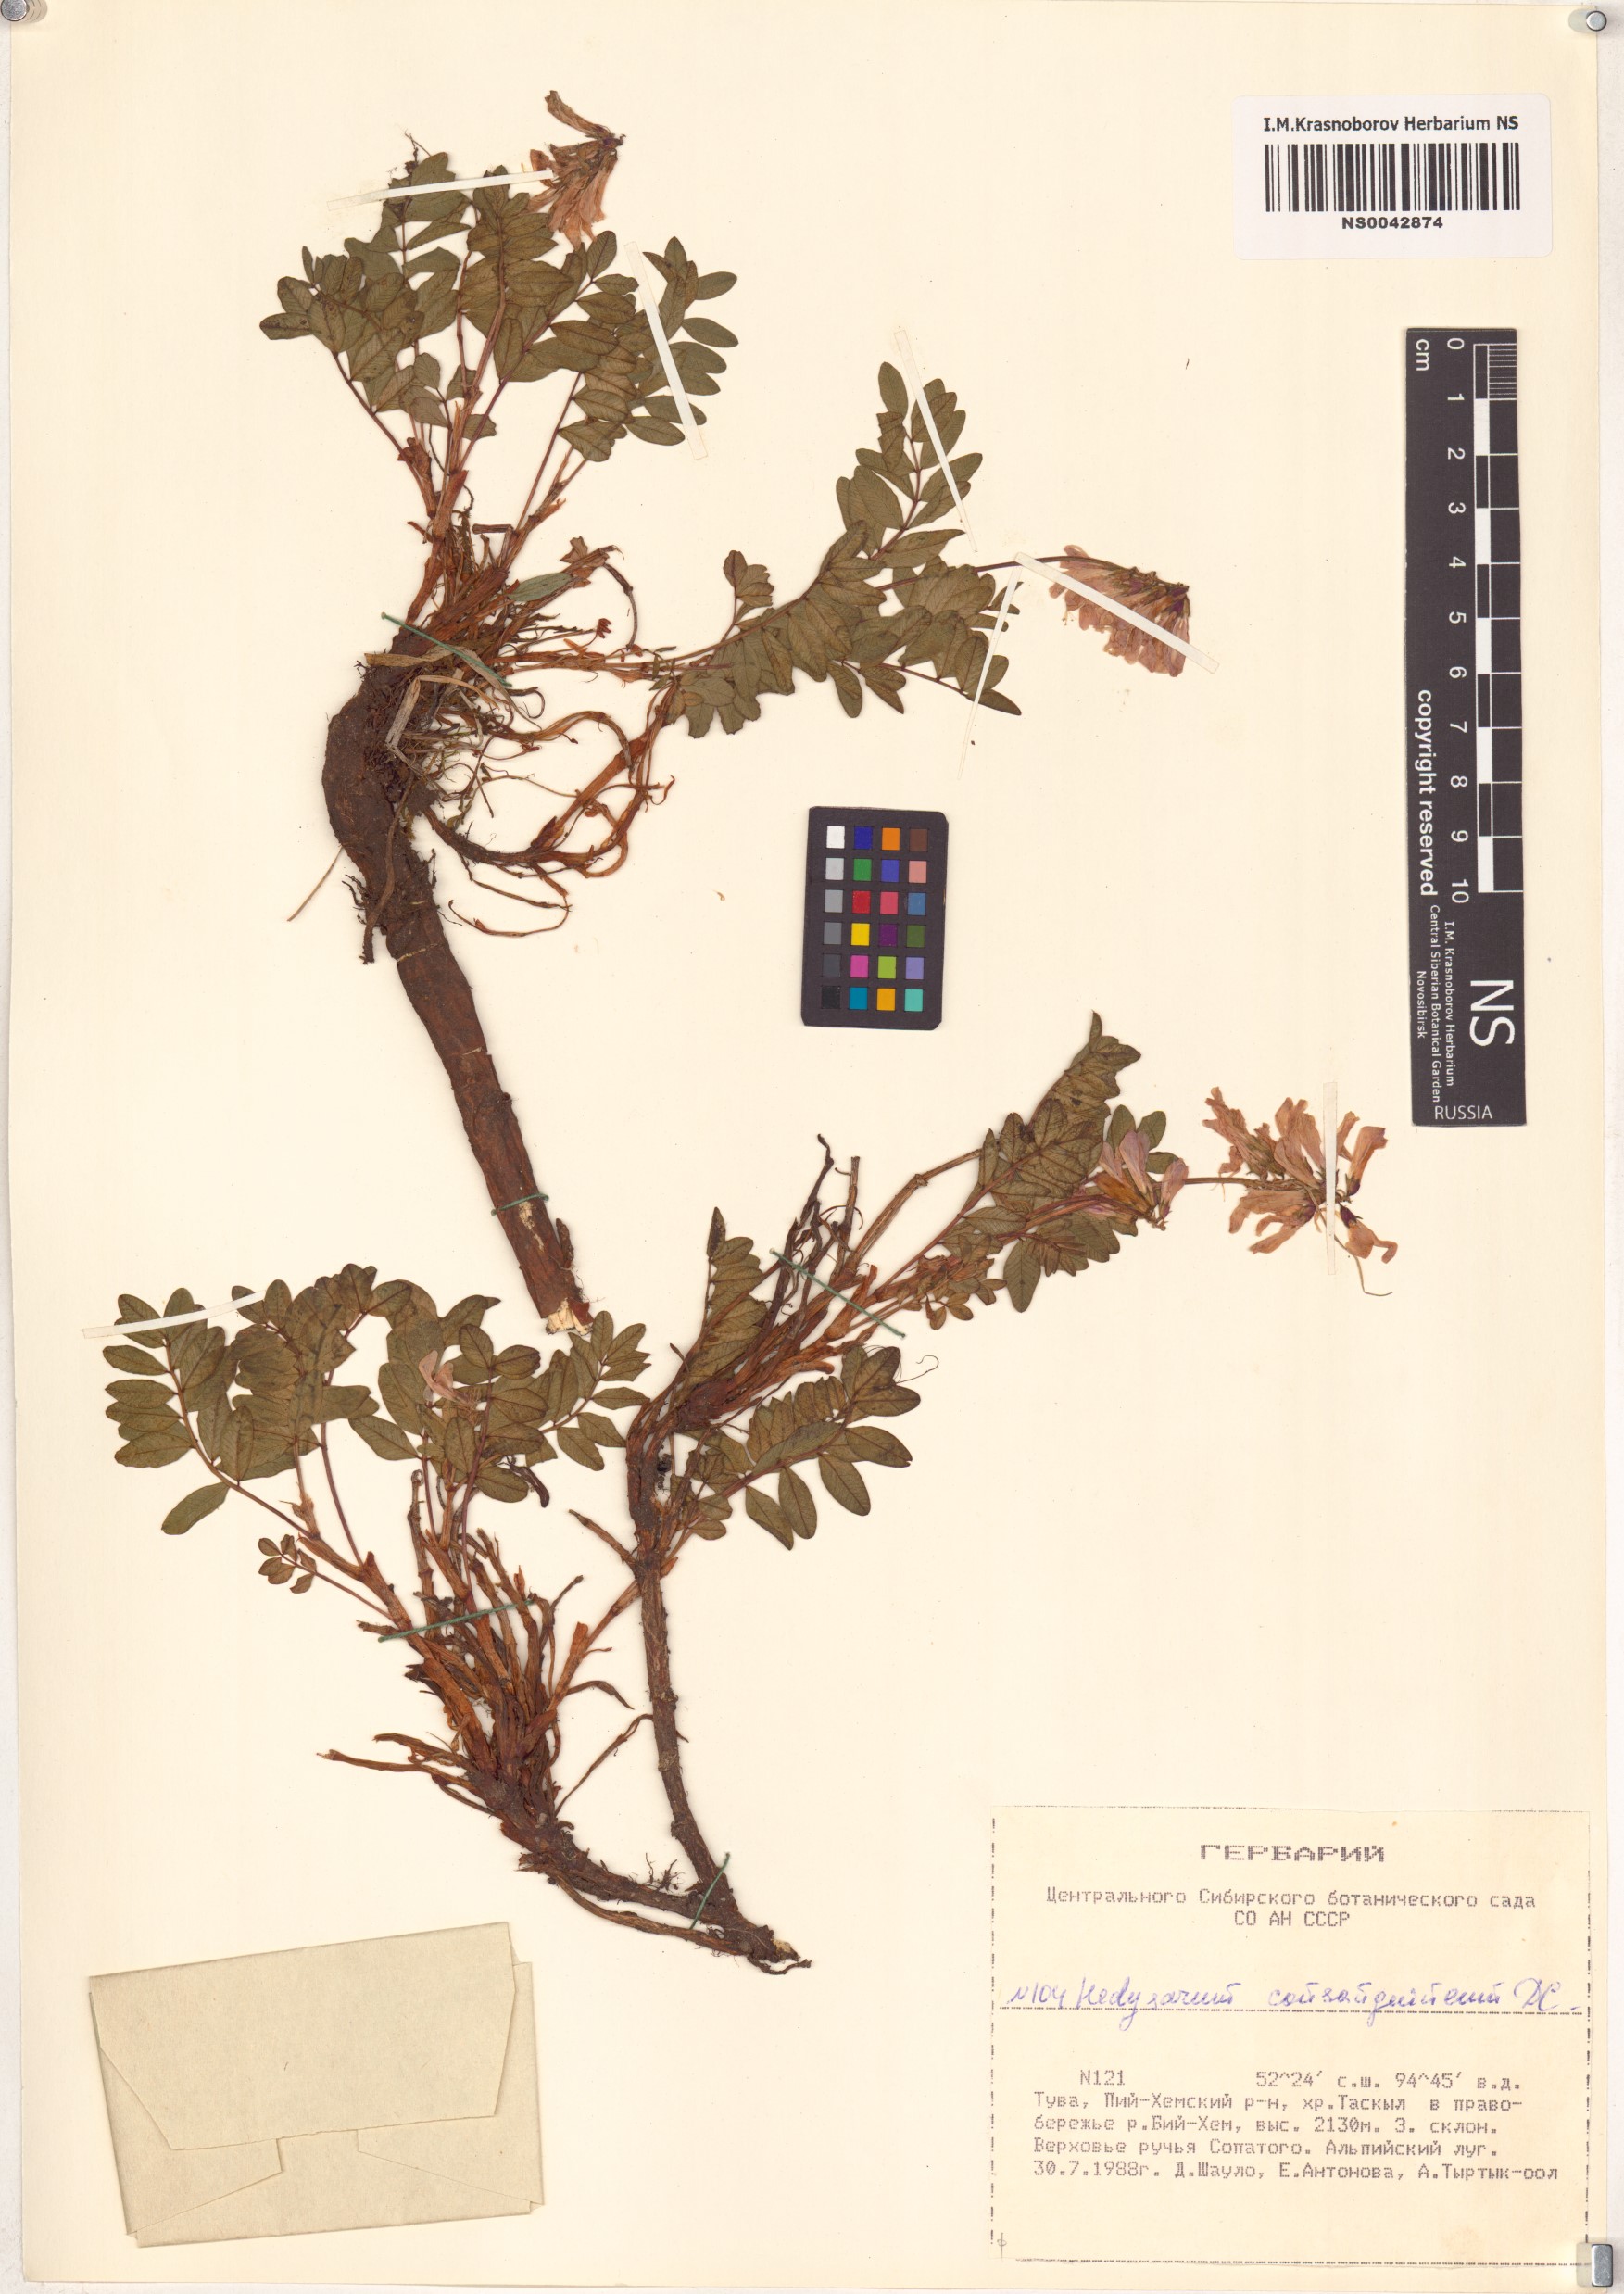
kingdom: Plantae
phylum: Tracheophyta
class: Magnoliopsida
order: Fabales
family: Fabaceae
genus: Hedysarum
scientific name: Hedysarum consanguineum
